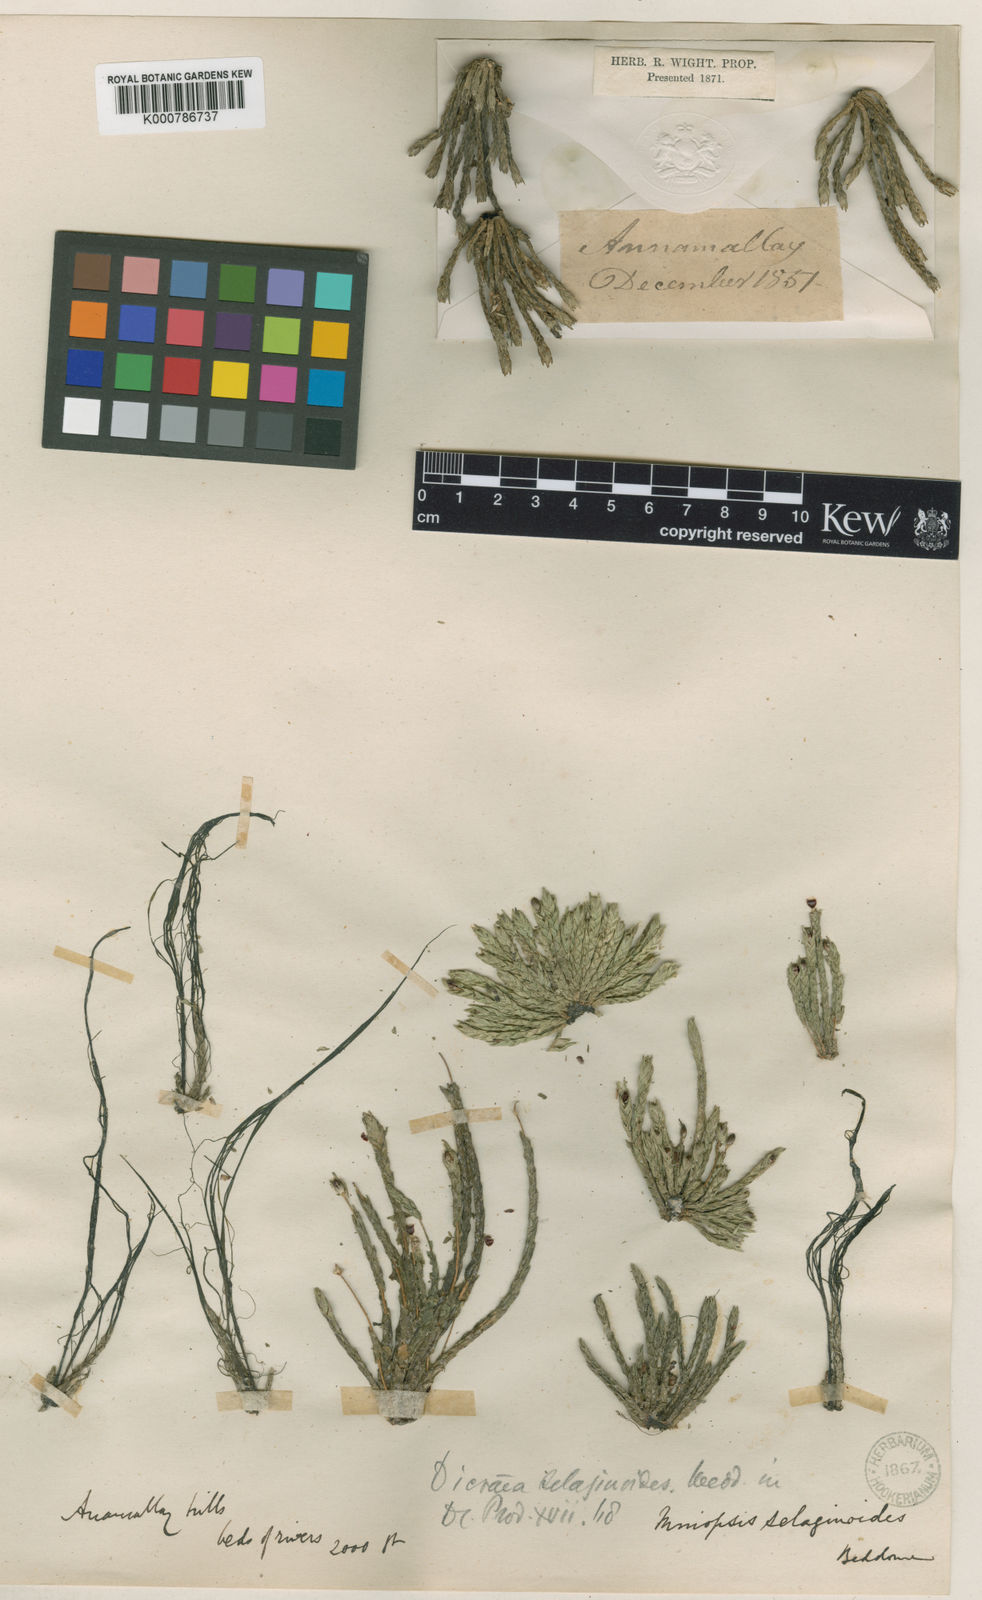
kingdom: Plantae
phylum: Tracheophyta
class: Magnoliopsida
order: Malpighiales
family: Podostemaceae
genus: Willisia
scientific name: Willisia selaginoides
